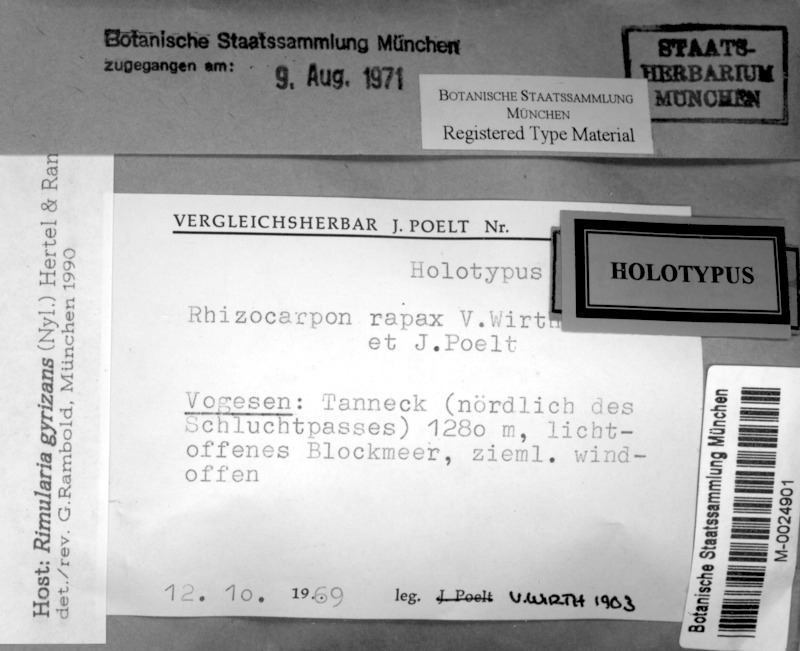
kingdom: Fungi
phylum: Ascomycota
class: Lecanoromycetes
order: Rhizocarpales
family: Rhizocarpaceae
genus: Rhizocarpon
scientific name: Rhizocarpon rapax
